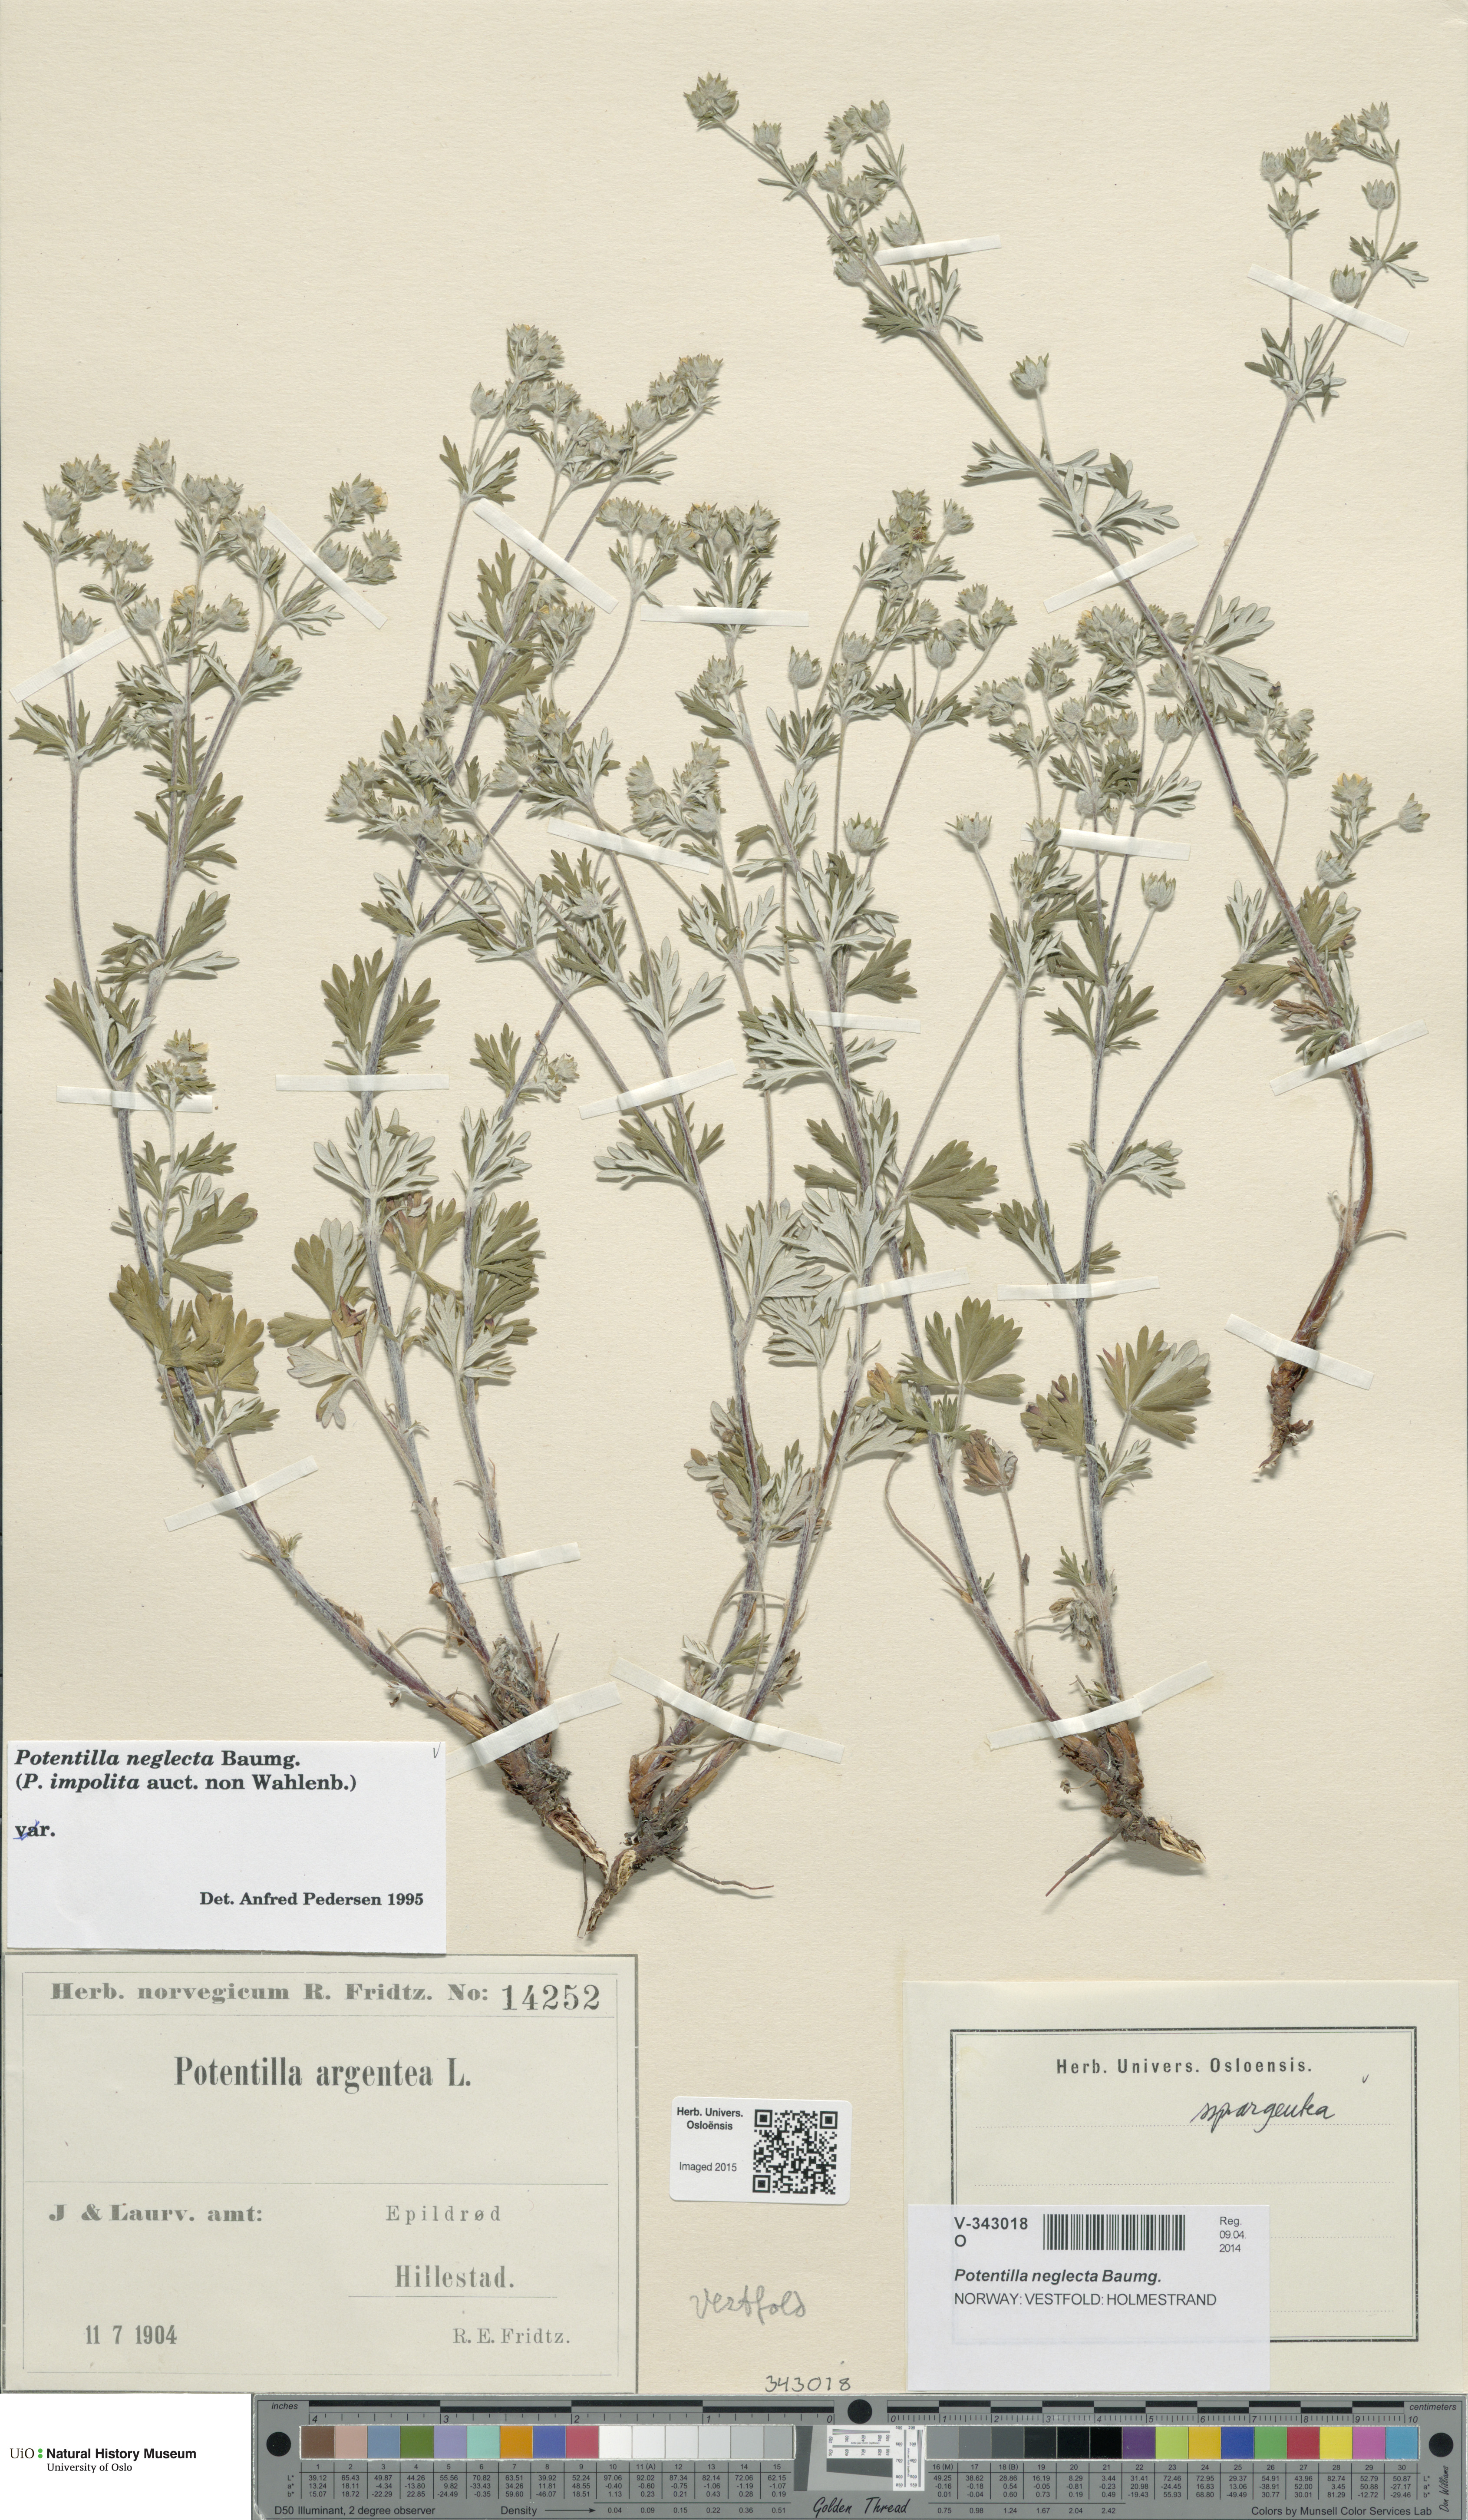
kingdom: Plantae
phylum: Tracheophyta
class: Magnoliopsida
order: Rosales
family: Rosaceae
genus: Potentilla
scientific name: Potentilla neglecta
